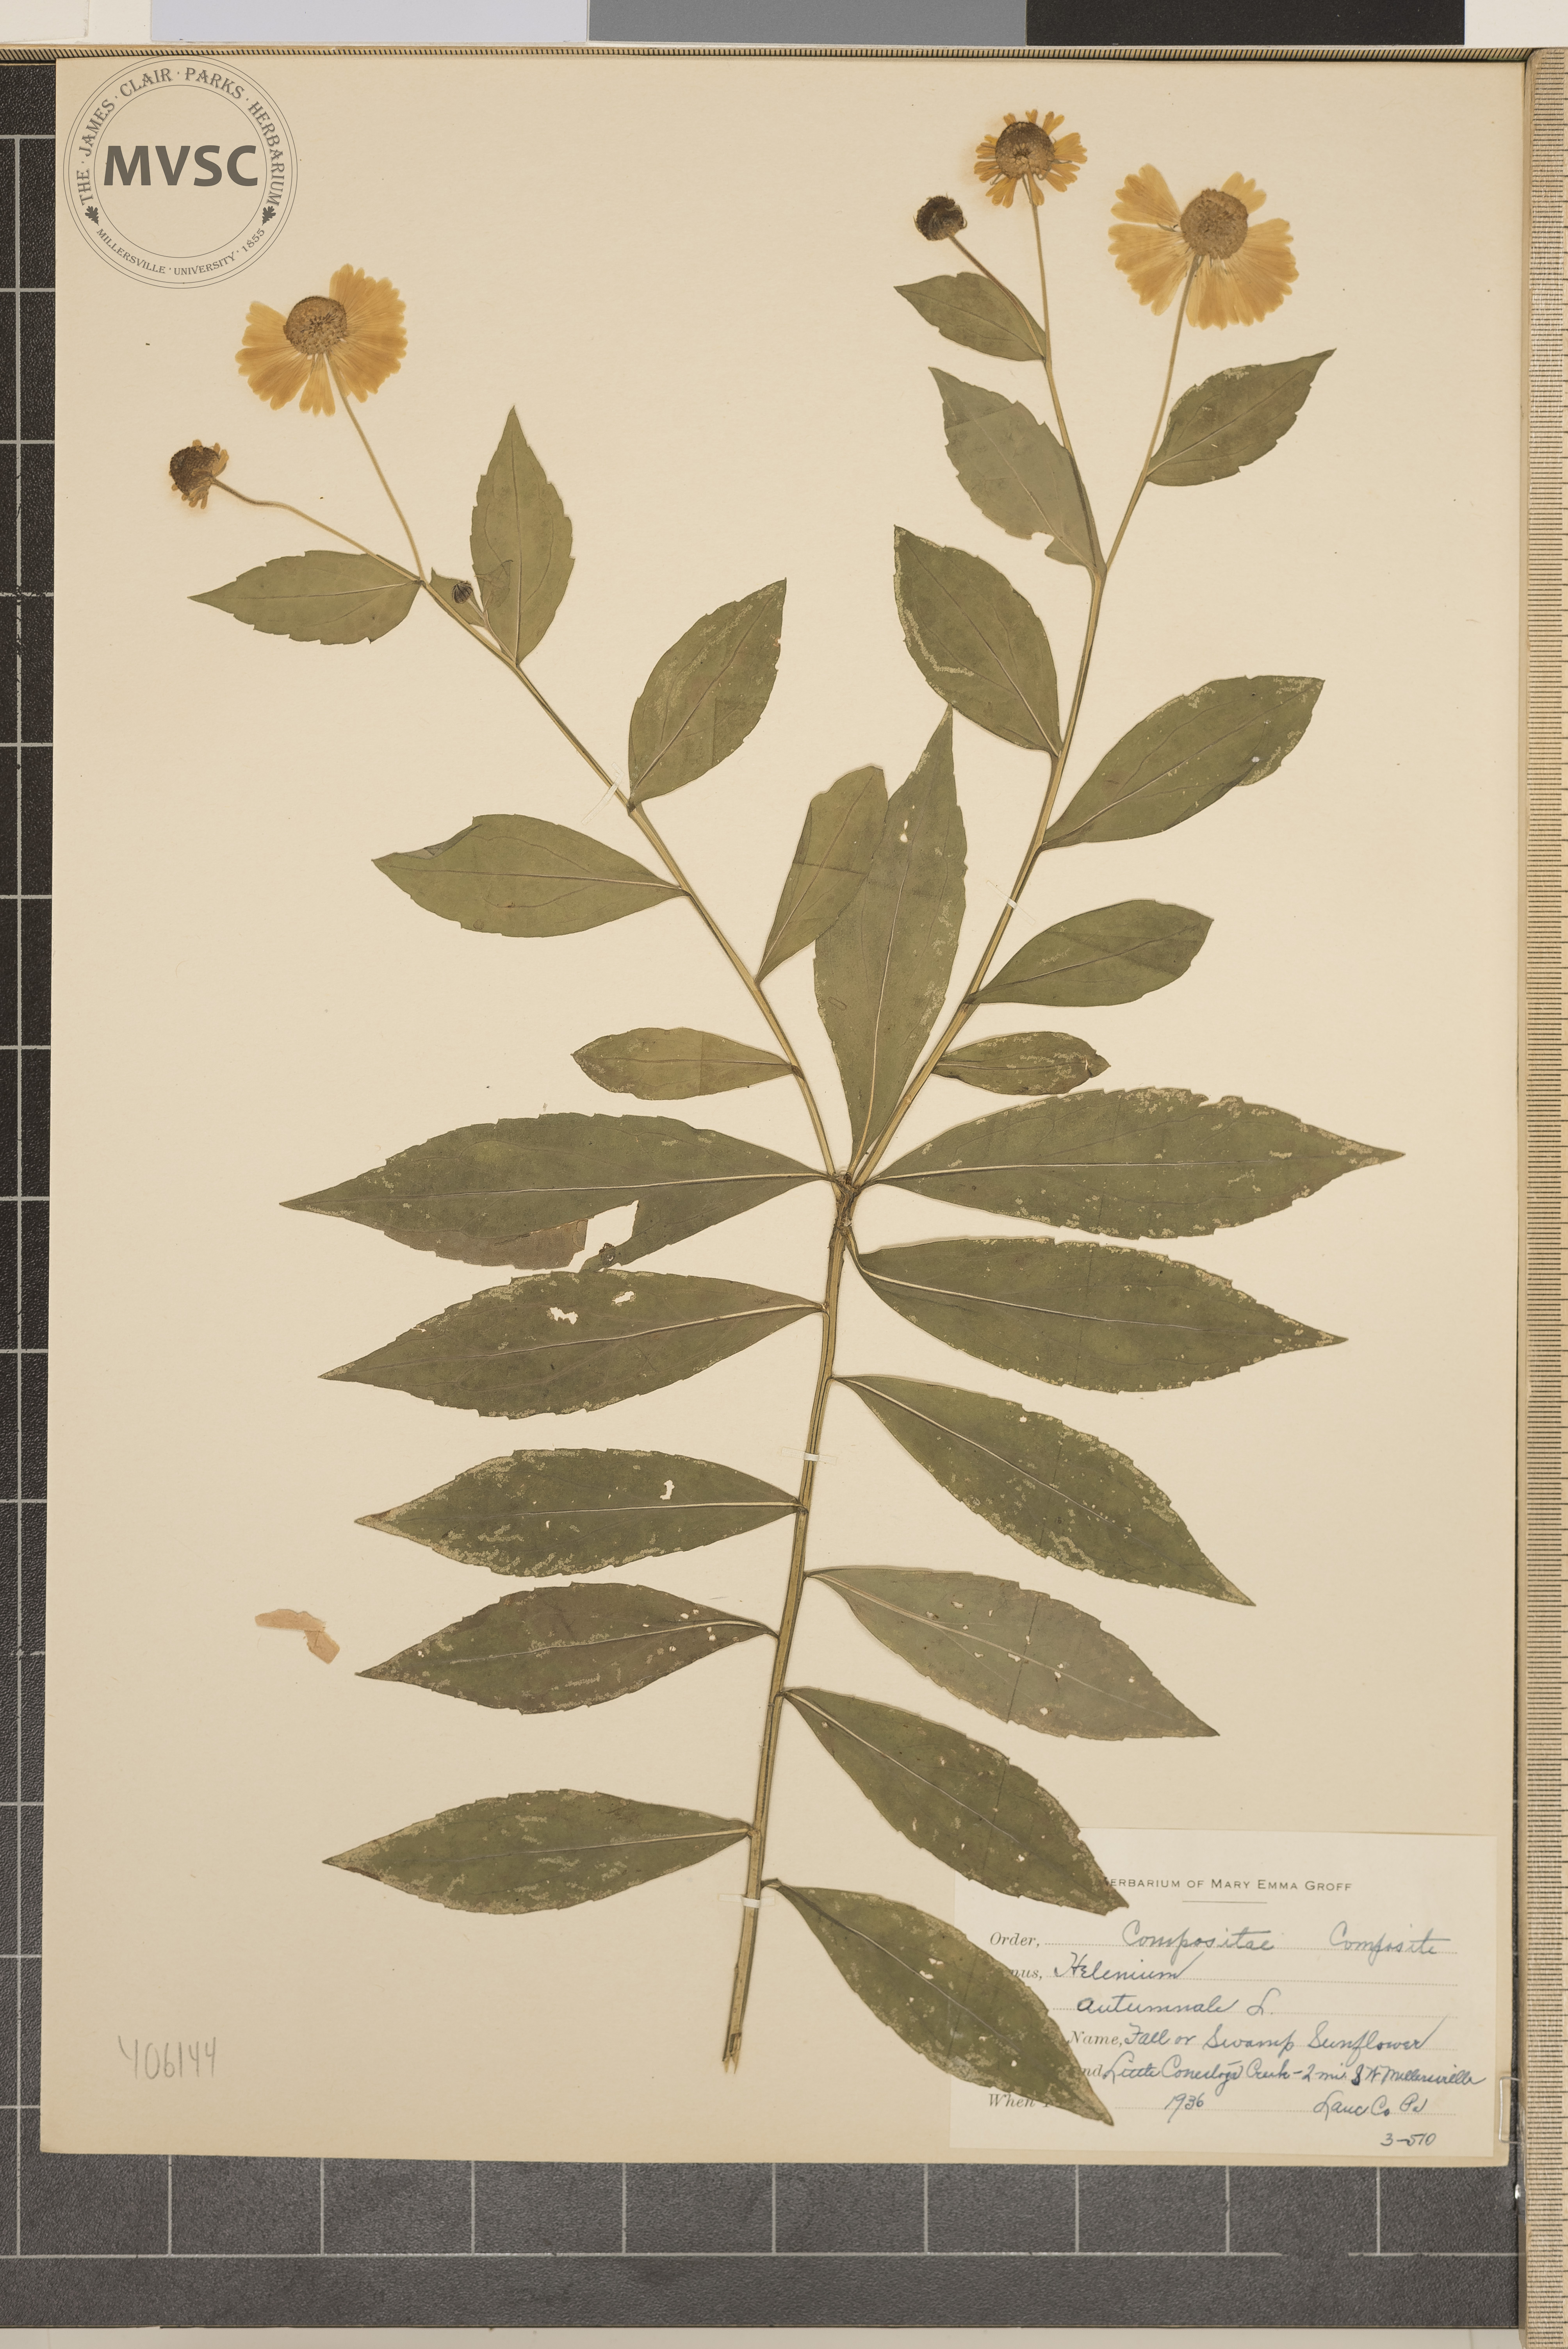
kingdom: Plantae
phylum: Tracheophyta
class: Magnoliopsida
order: Asterales
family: Asteraceae
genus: Helenium
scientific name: Helenium autumnale
